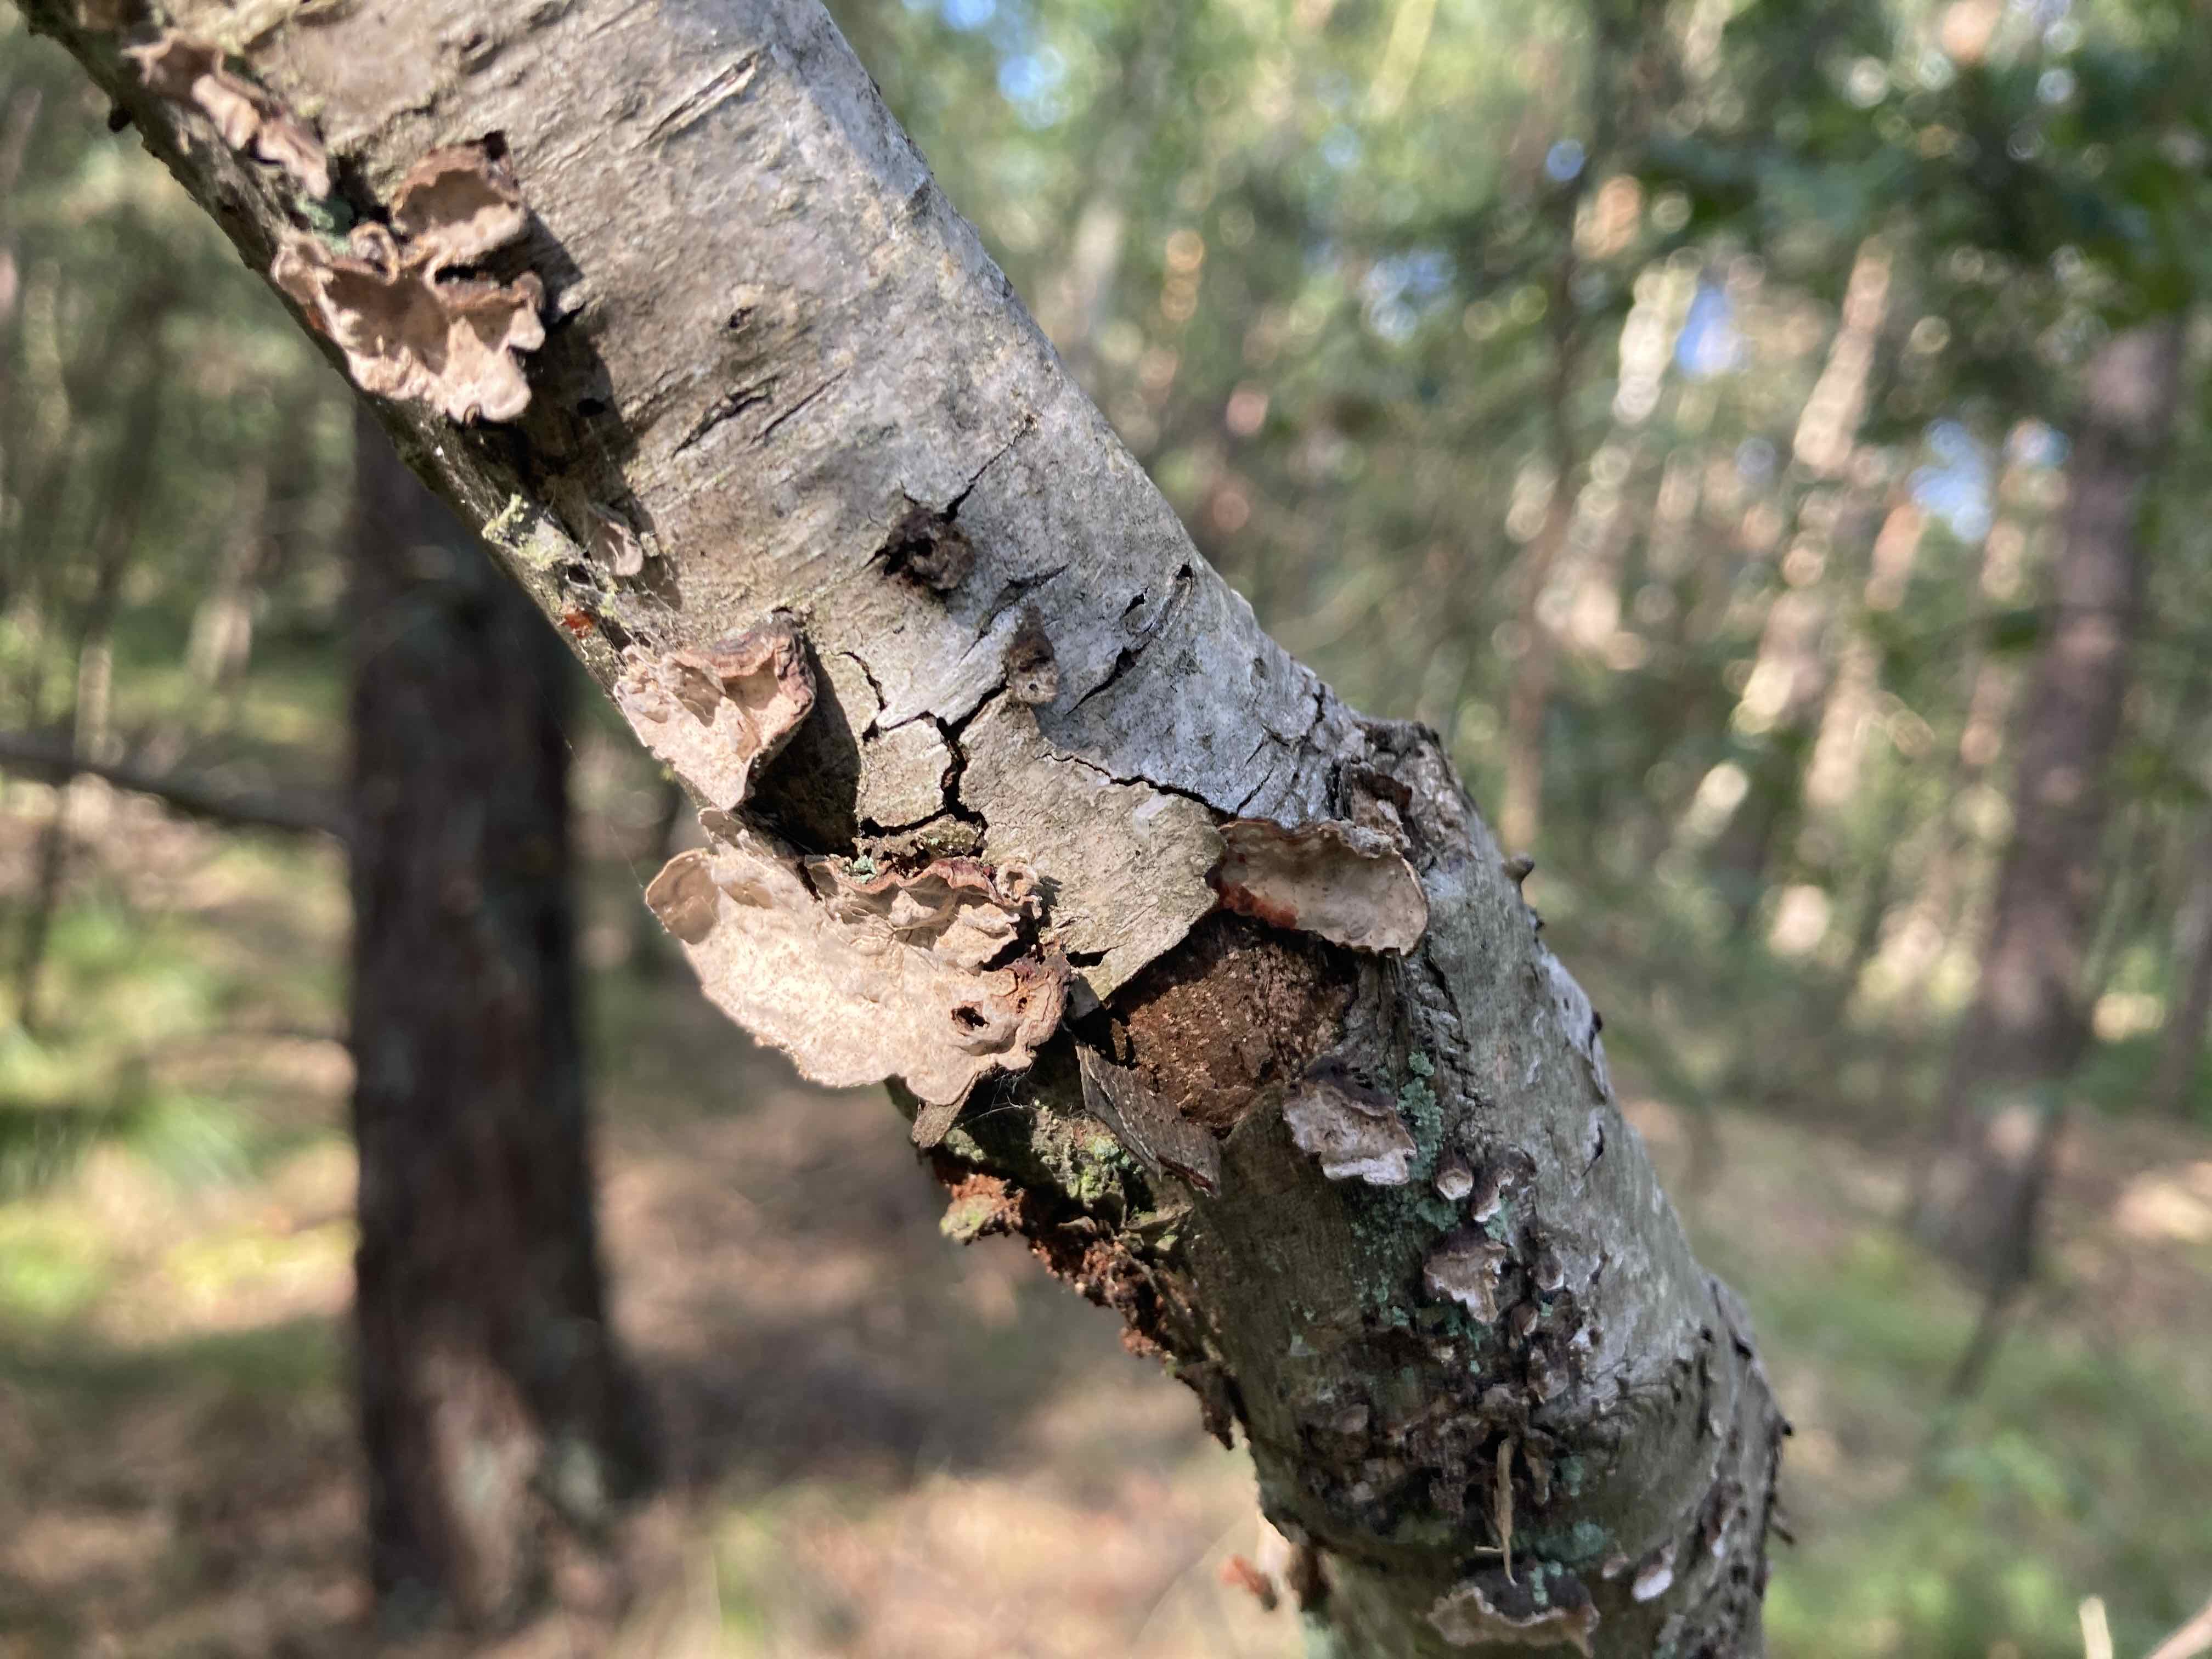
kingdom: Fungi
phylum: Basidiomycota
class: Agaricomycetes
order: Russulales
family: Stereaceae
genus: Stereum
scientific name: Stereum rugosum
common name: rynket lædersvamp
